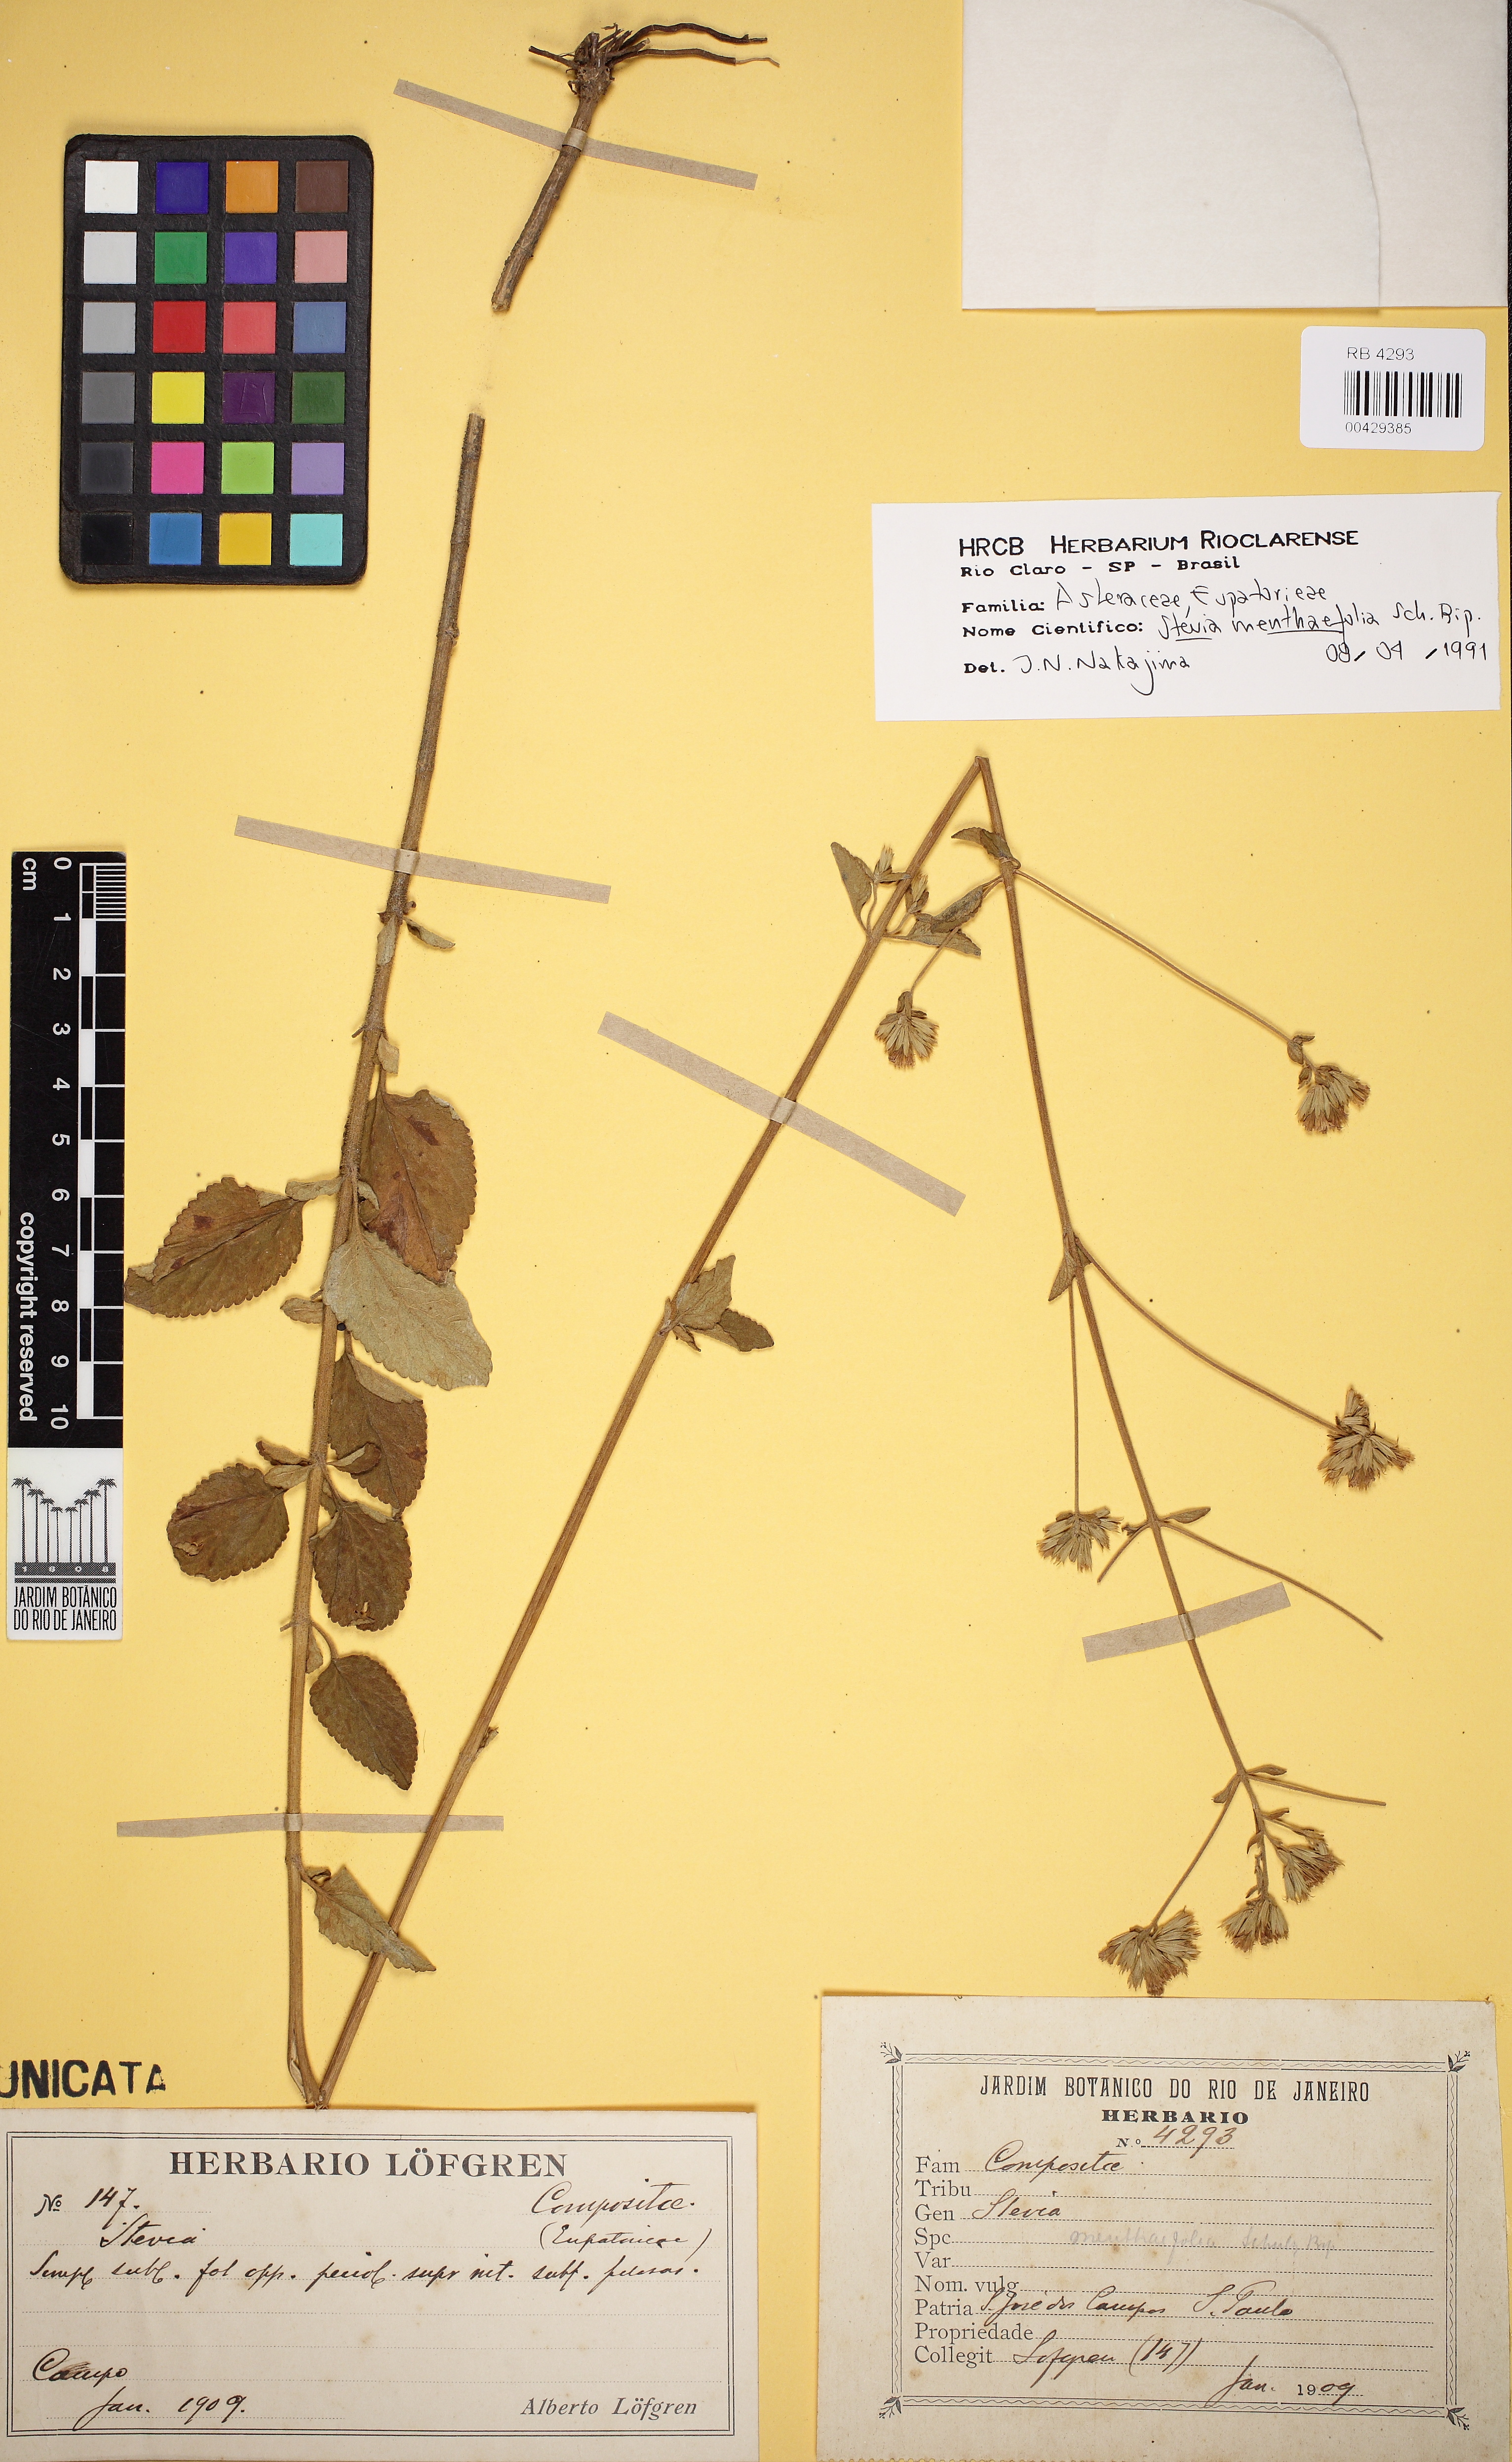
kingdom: Plantae
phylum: Tracheophyta
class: Magnoliopsida
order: Asterales
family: Asteraceae
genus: Stevia
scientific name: Stevia menthaefolia
